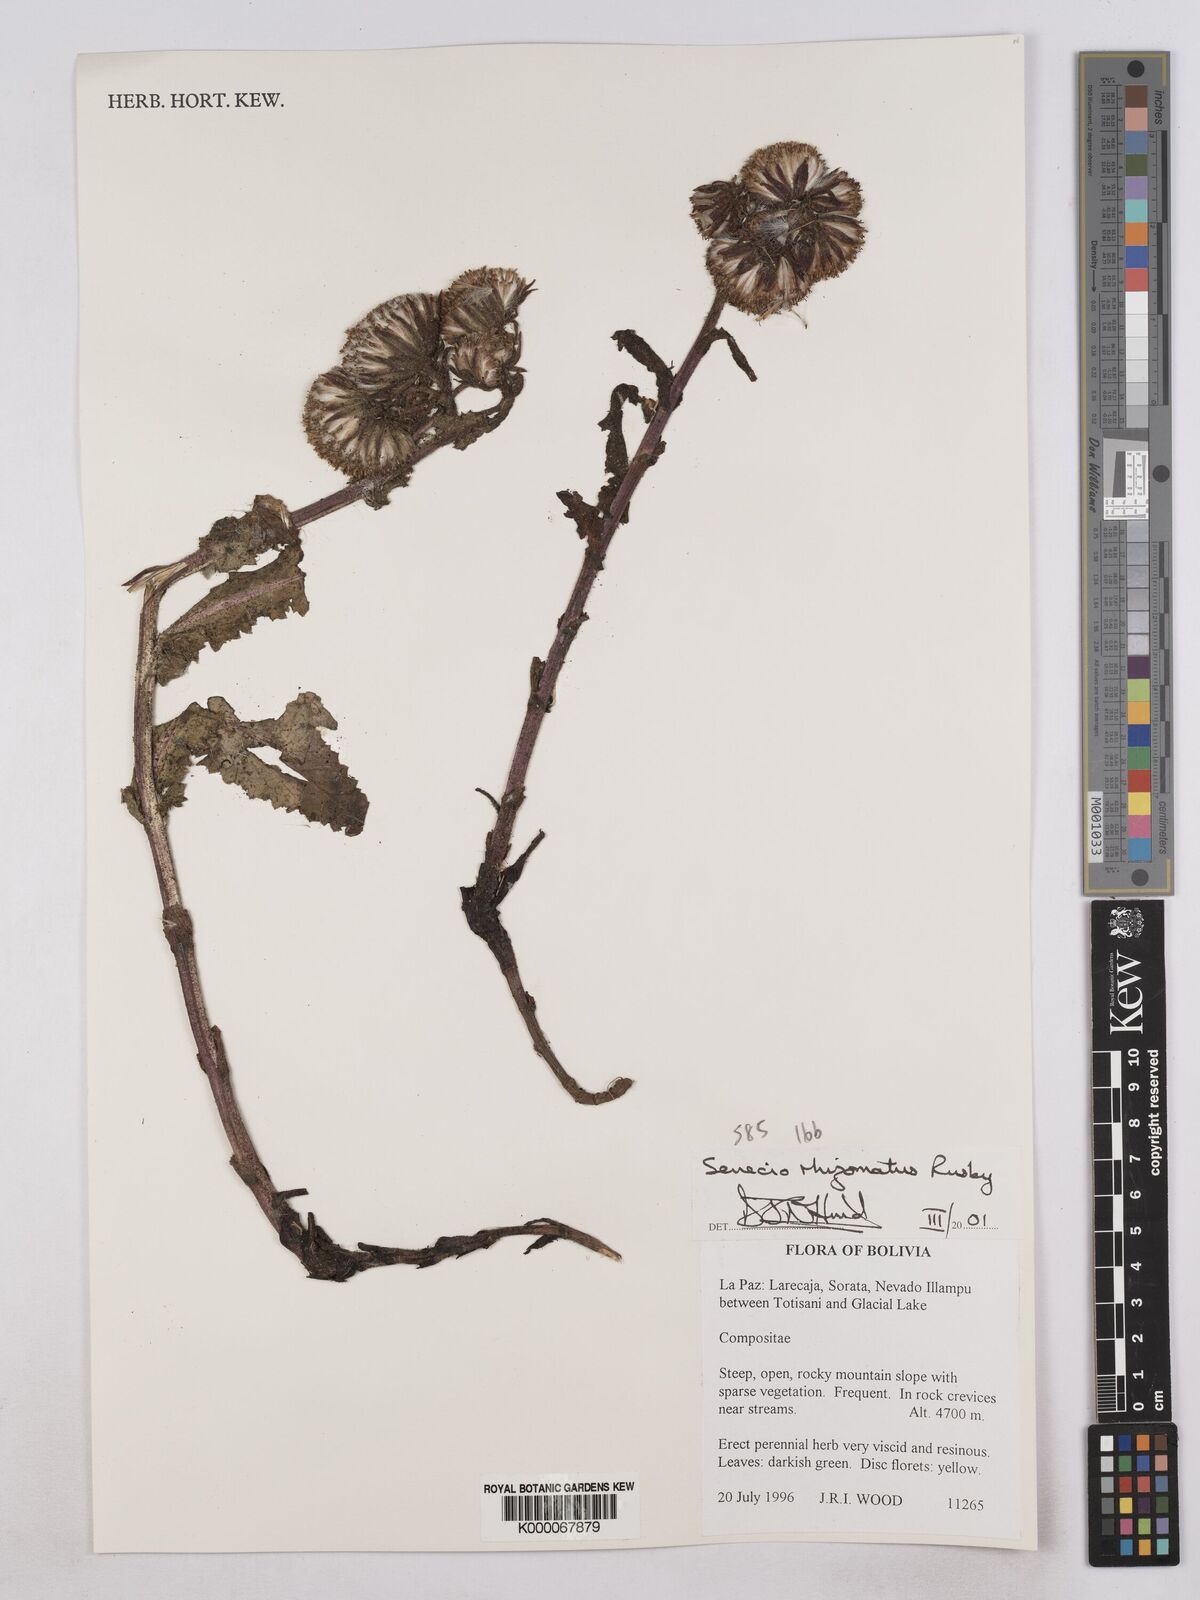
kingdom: Plantae
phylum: Tracheophyta
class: Magnoliopsida
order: Asterales
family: Asteraceae
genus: Senecio
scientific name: Senecio rhizomatus
